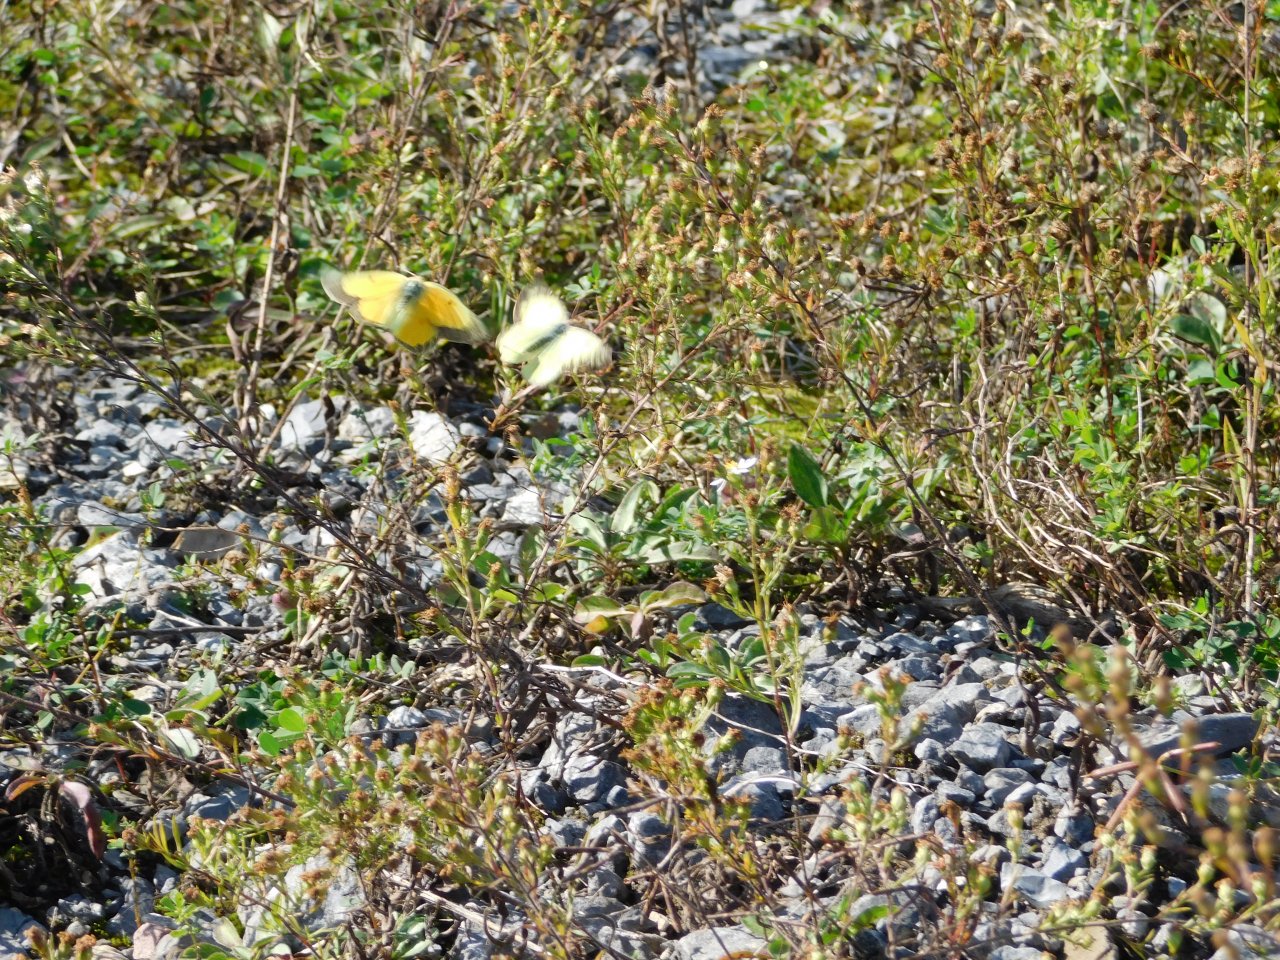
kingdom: Animalia
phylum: Arthropoda
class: Insecta
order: Lepidoptera
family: Pieridae
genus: Colias
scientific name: Colias eurytheme
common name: Orange Sulphur
